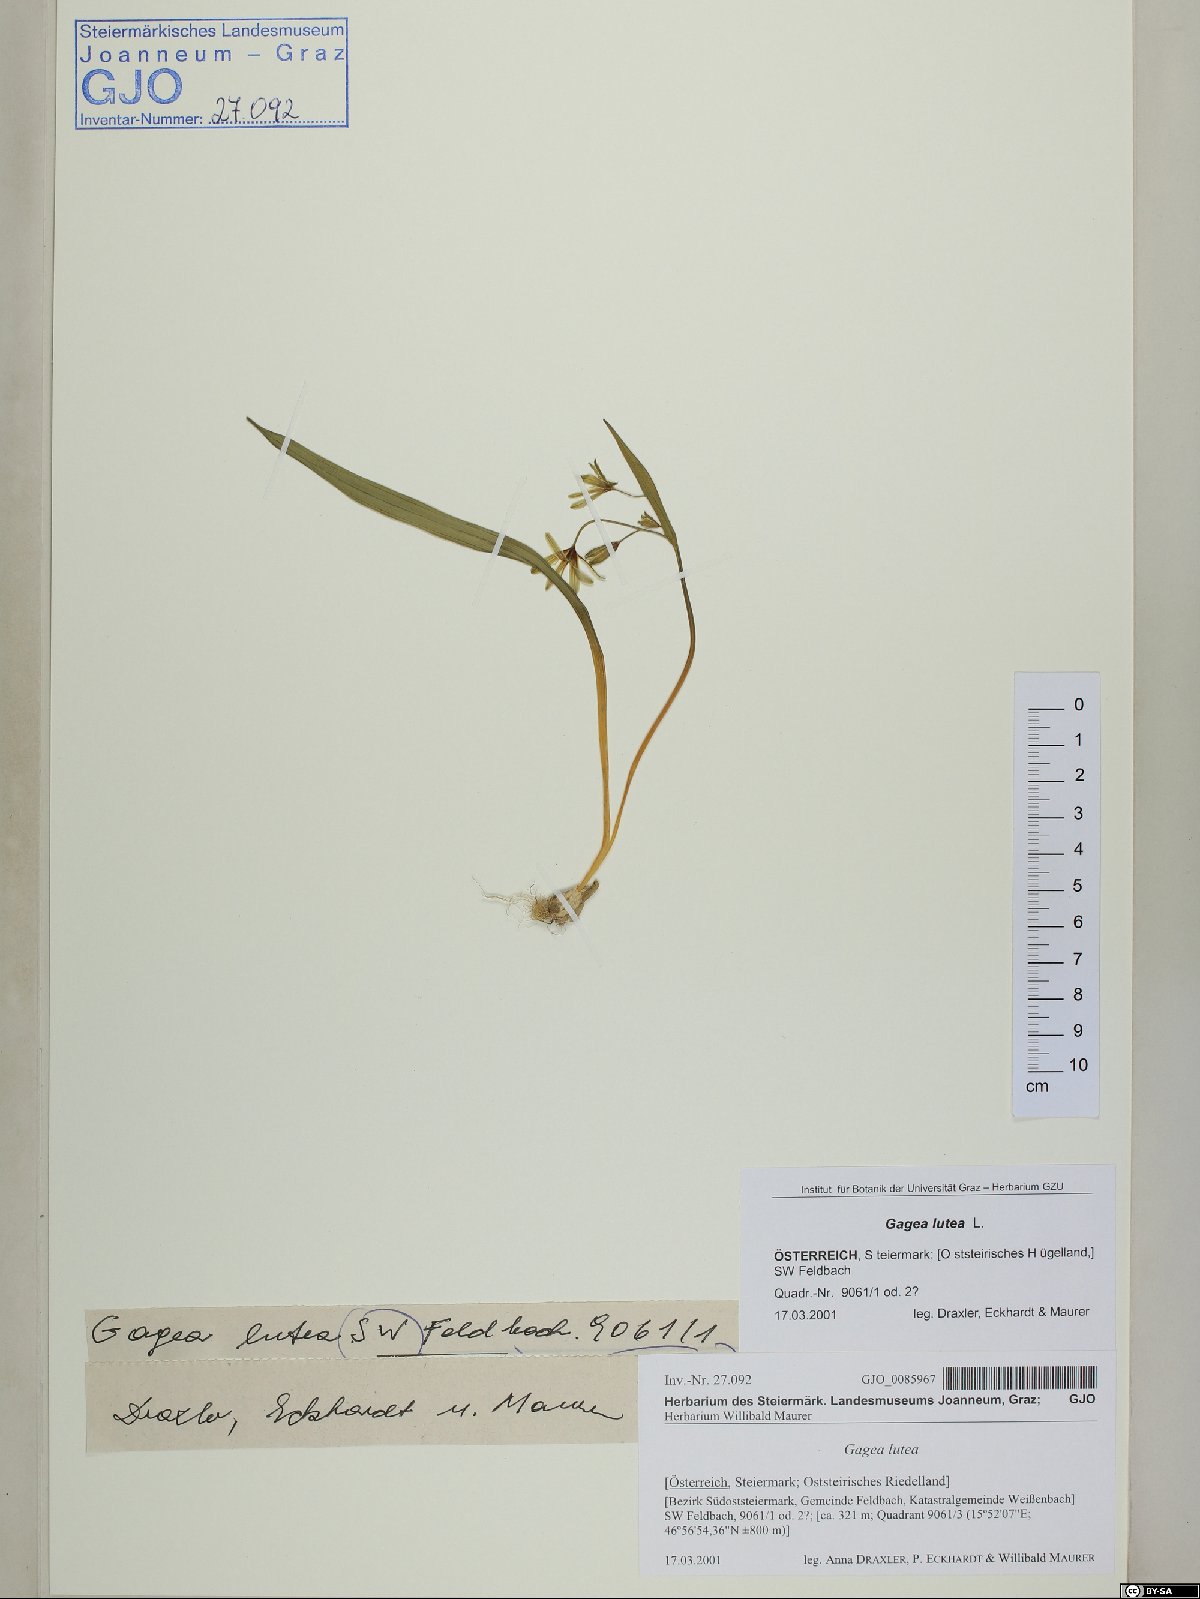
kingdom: Plantae
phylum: Tracheophyta
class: Liliopsida
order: Liliales
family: Liliaceae
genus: Gagea
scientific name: Gagea lutea
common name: Yellow star-of-bethlehem
